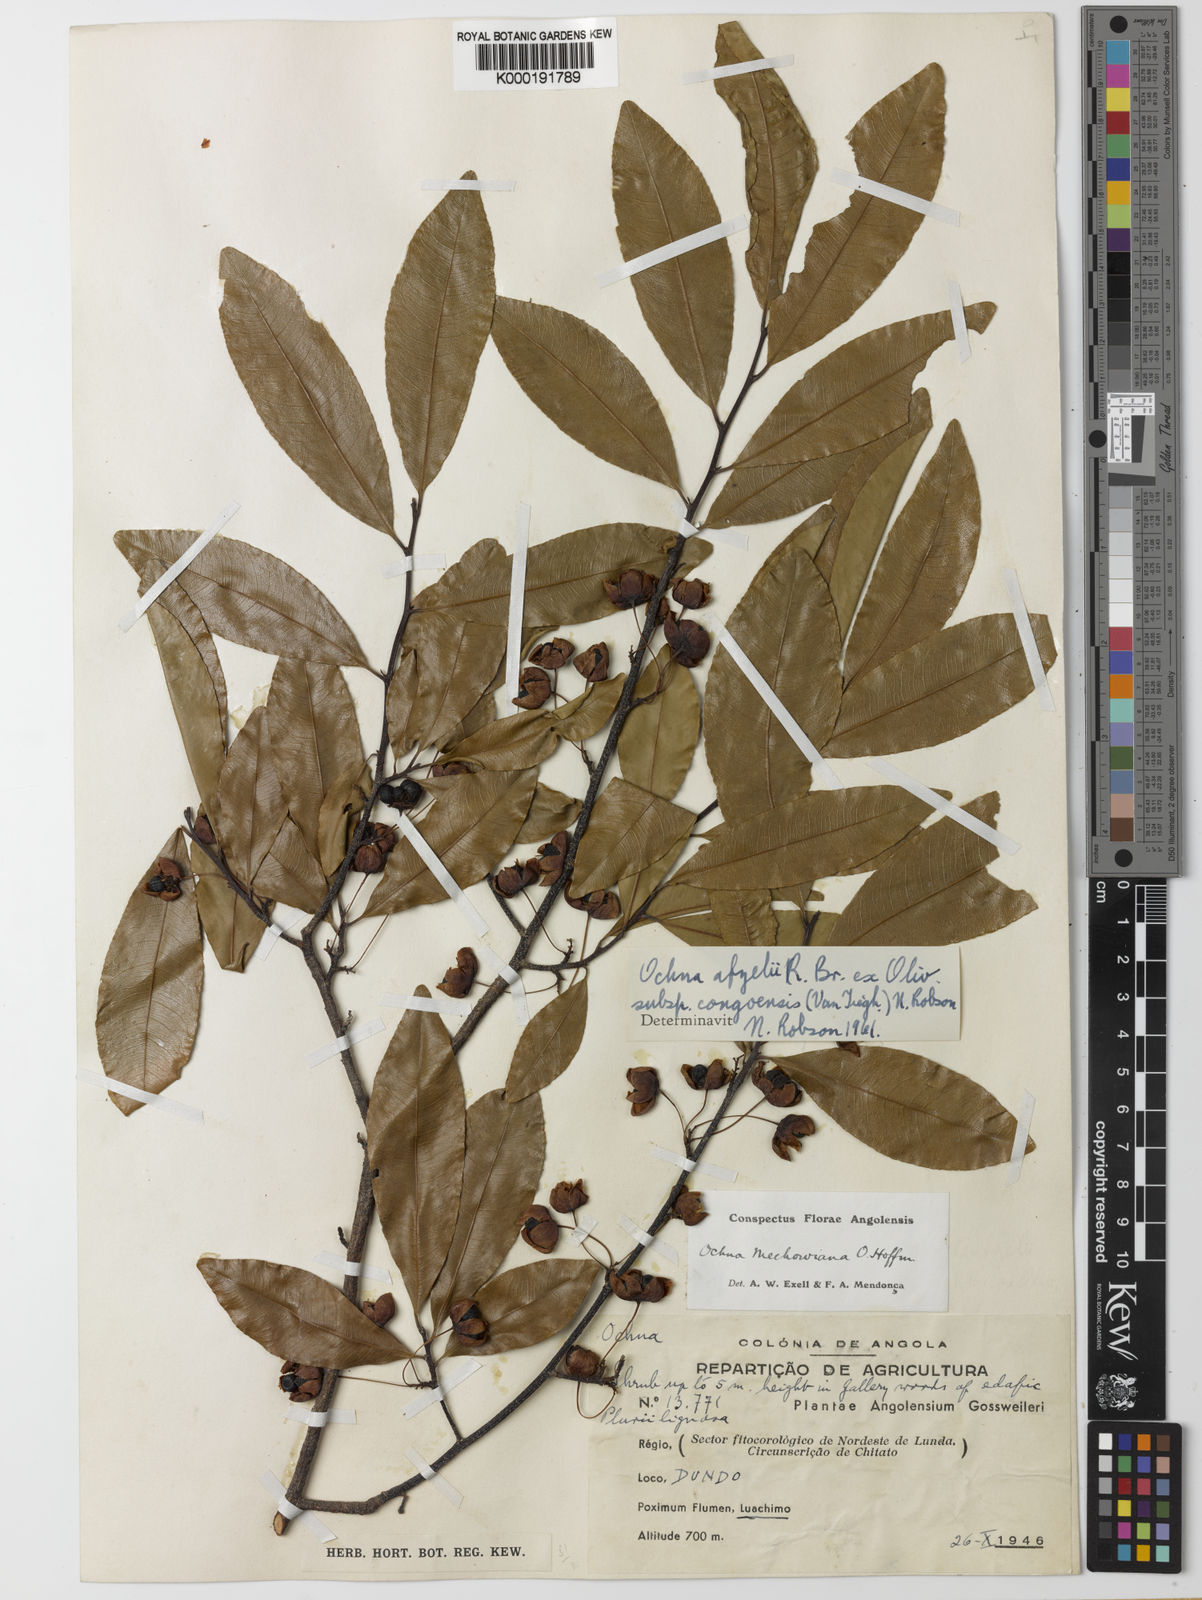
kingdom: Plantae
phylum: Tracheophyta
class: Magnoliopsida
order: Malpighiales
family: Ochnaceae
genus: Ochna
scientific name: Ochna
